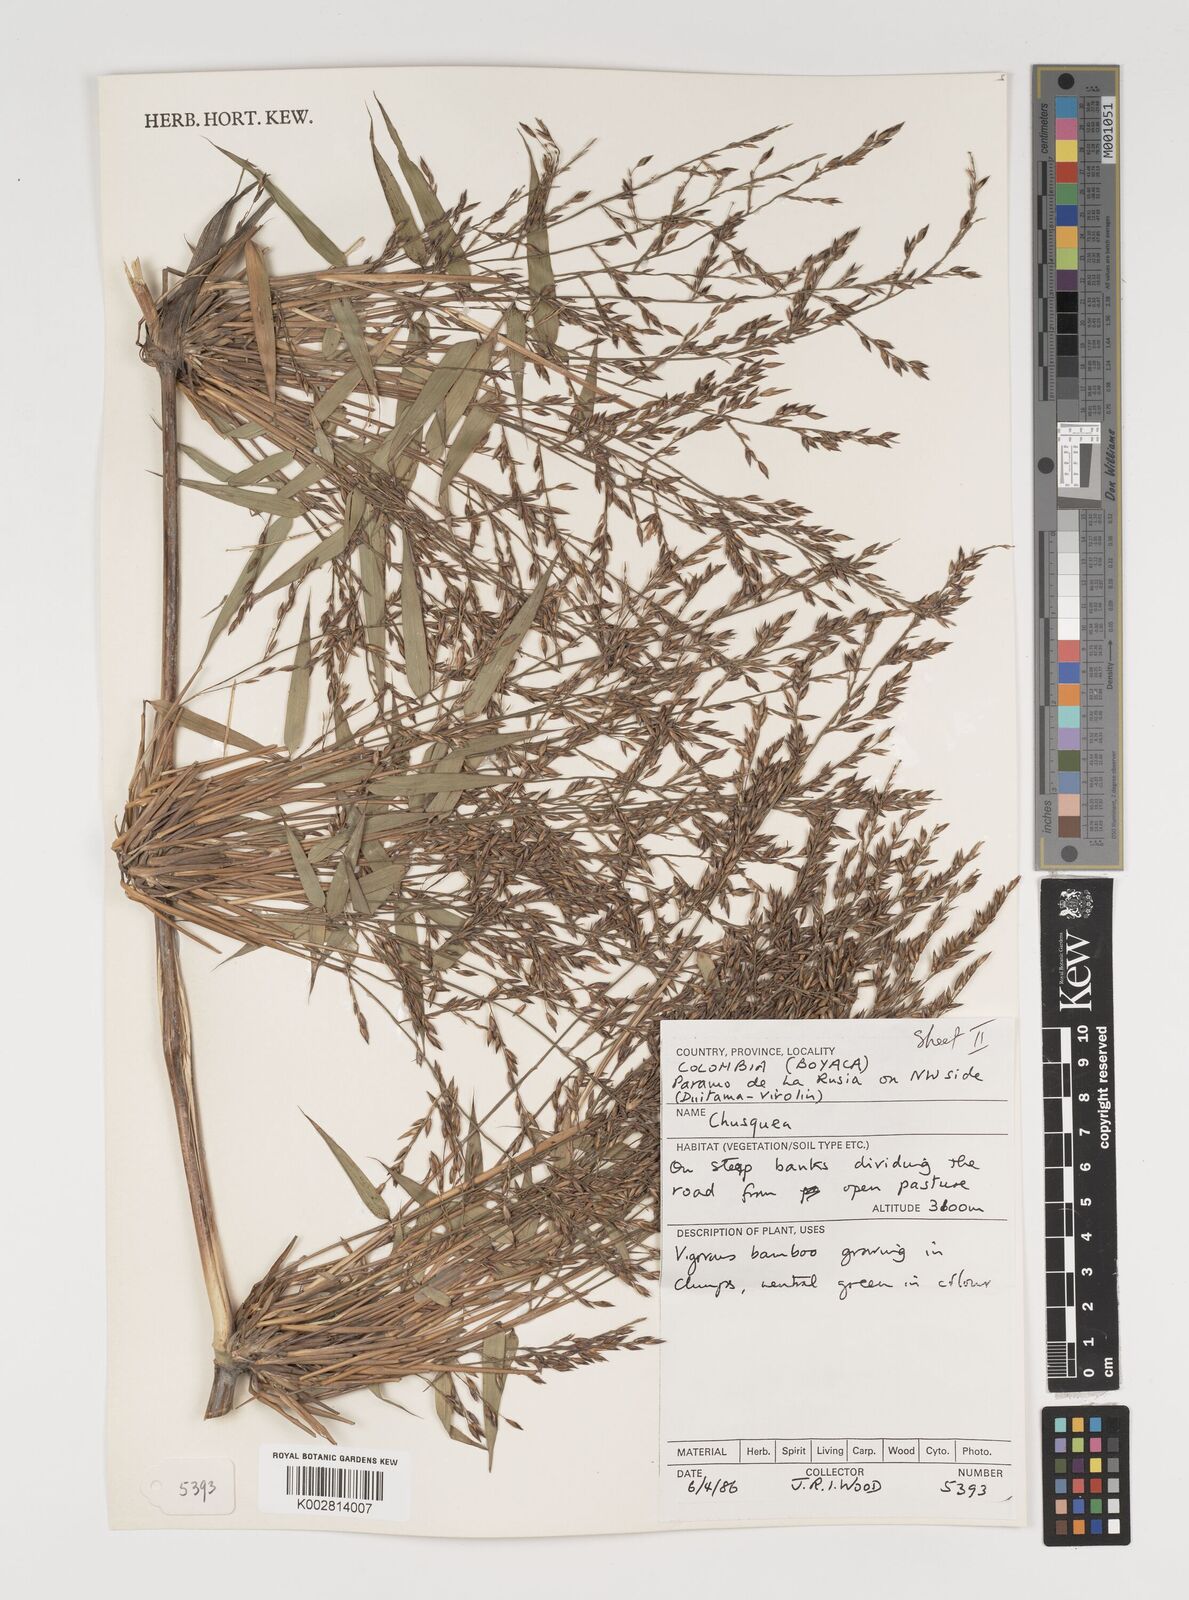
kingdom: Plantae
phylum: Tracheophyta
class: Liliopsida
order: Poales
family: Poaceae
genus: Chusquea
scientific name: Chusquea
